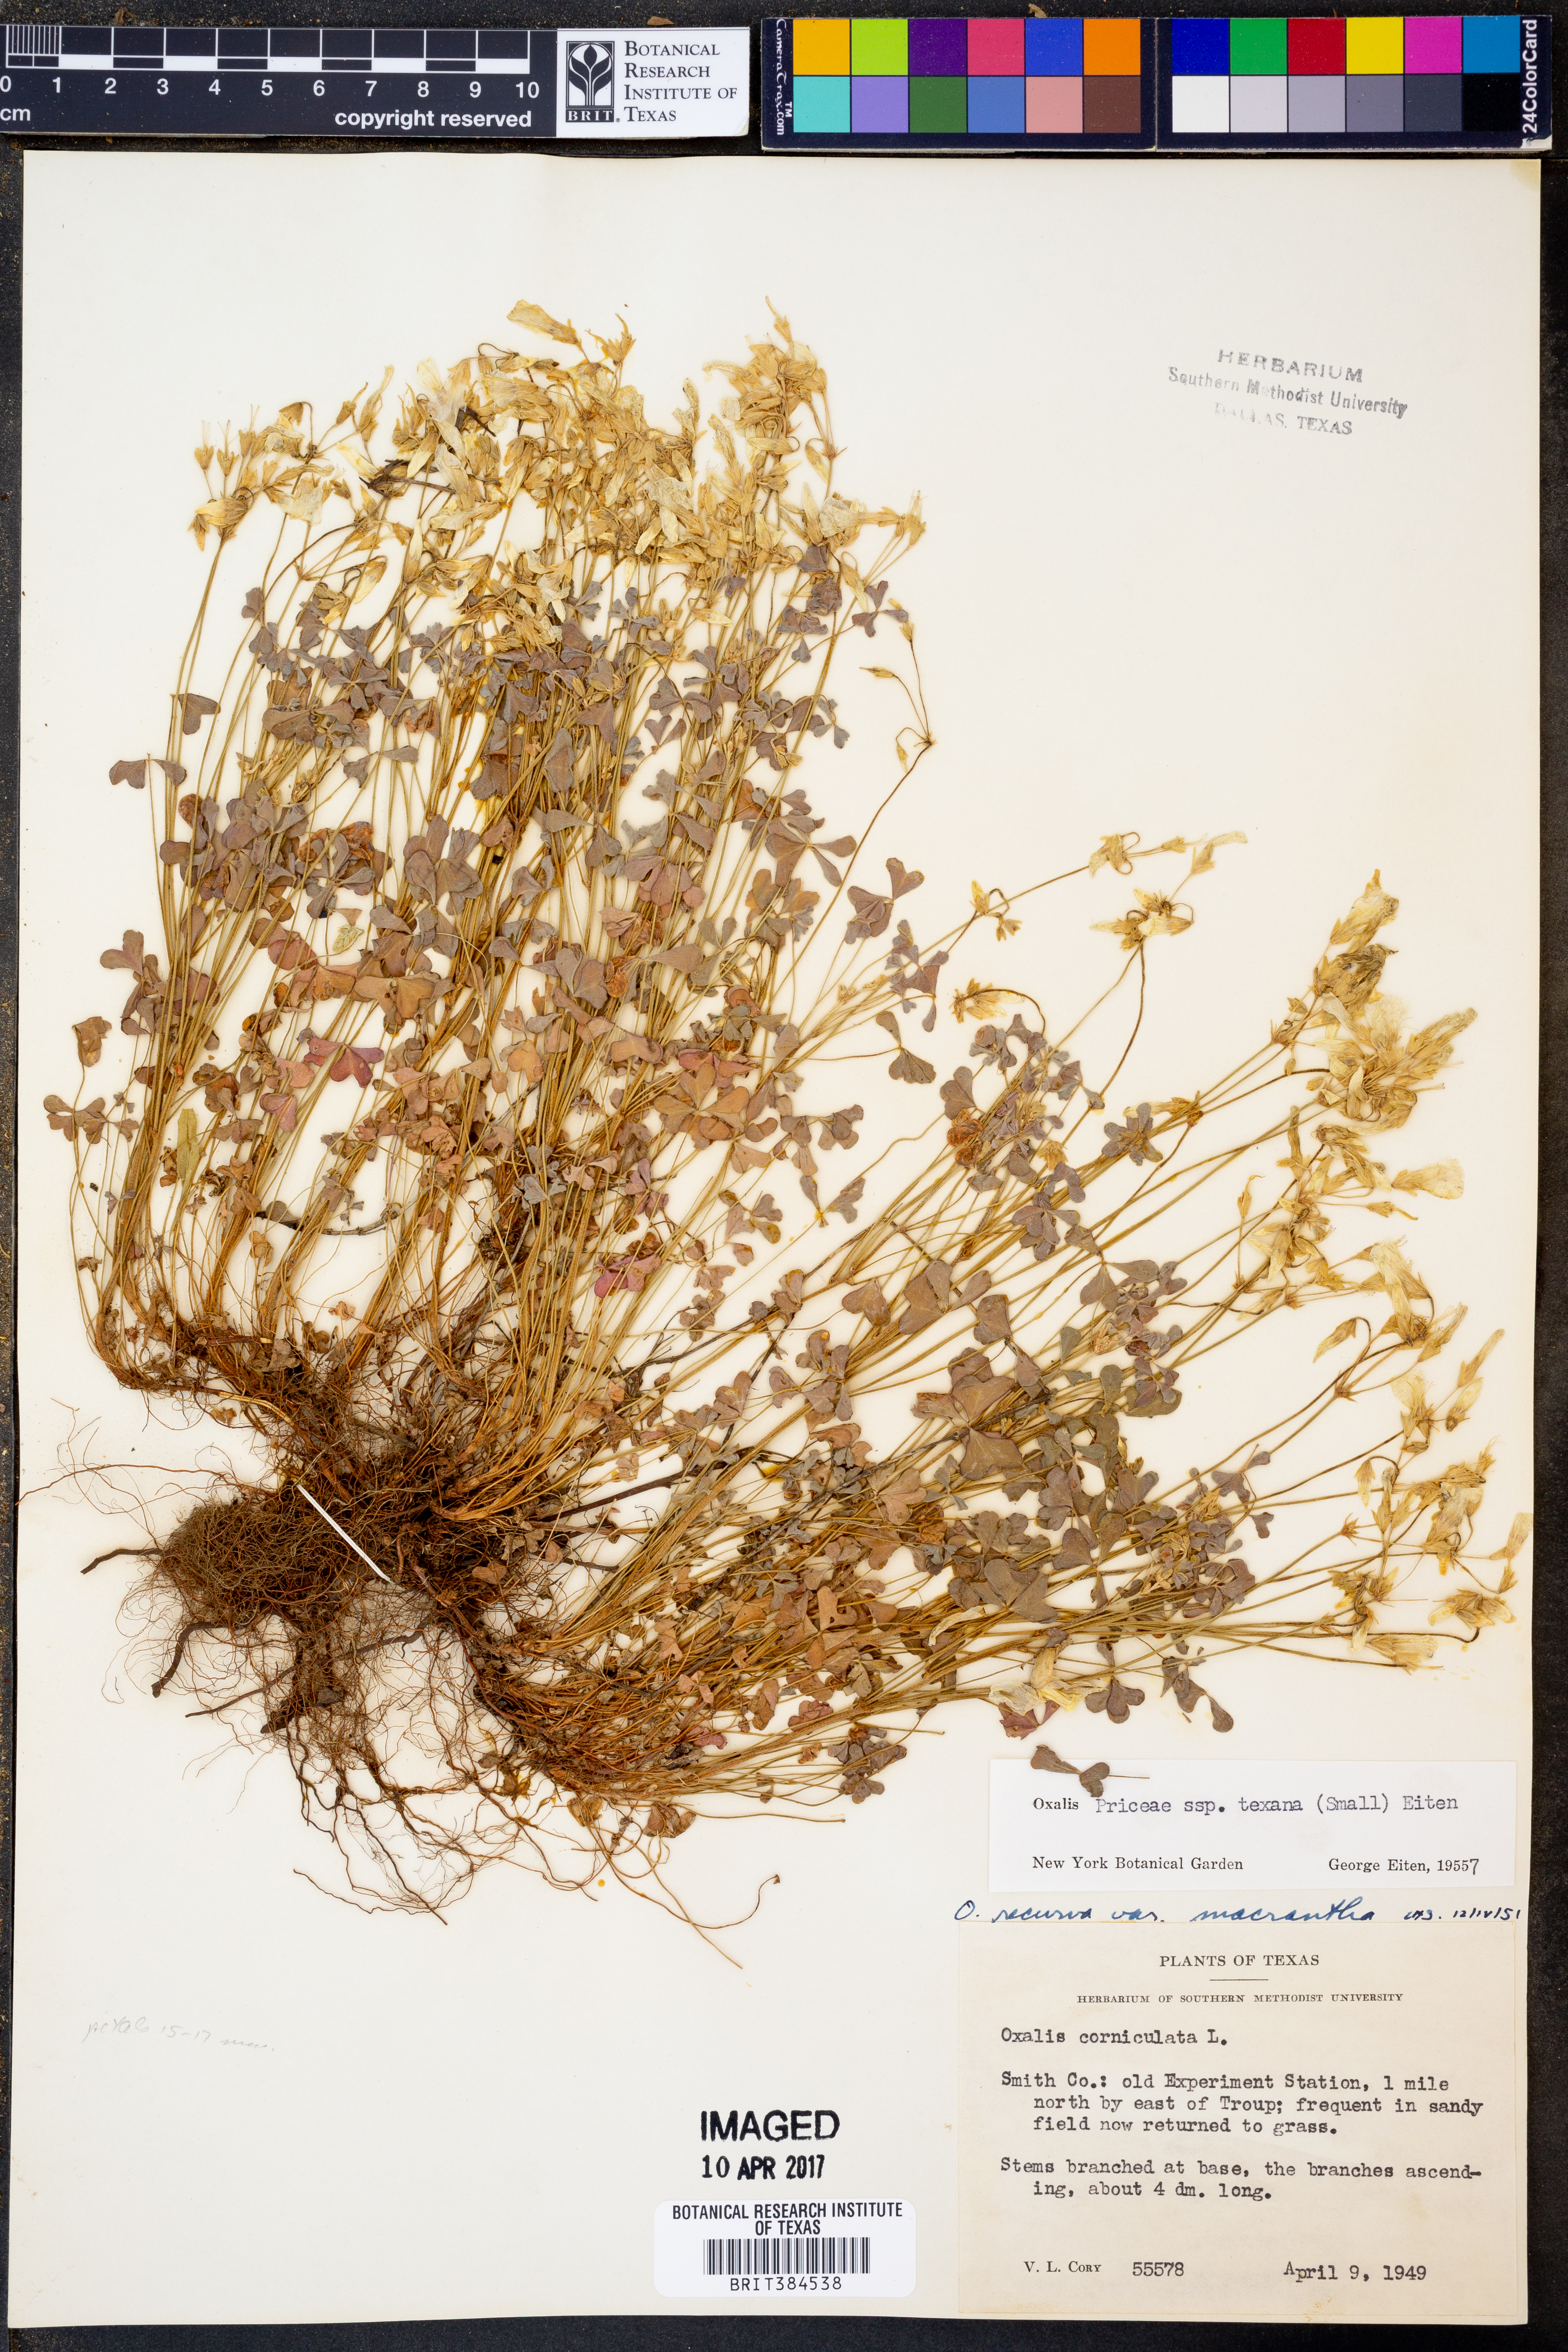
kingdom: Plantae
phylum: Tracheophyta
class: Magnoliopsida
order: Oxalidales
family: Oxalidaceae
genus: Oxalis
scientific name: Oxalis texana
